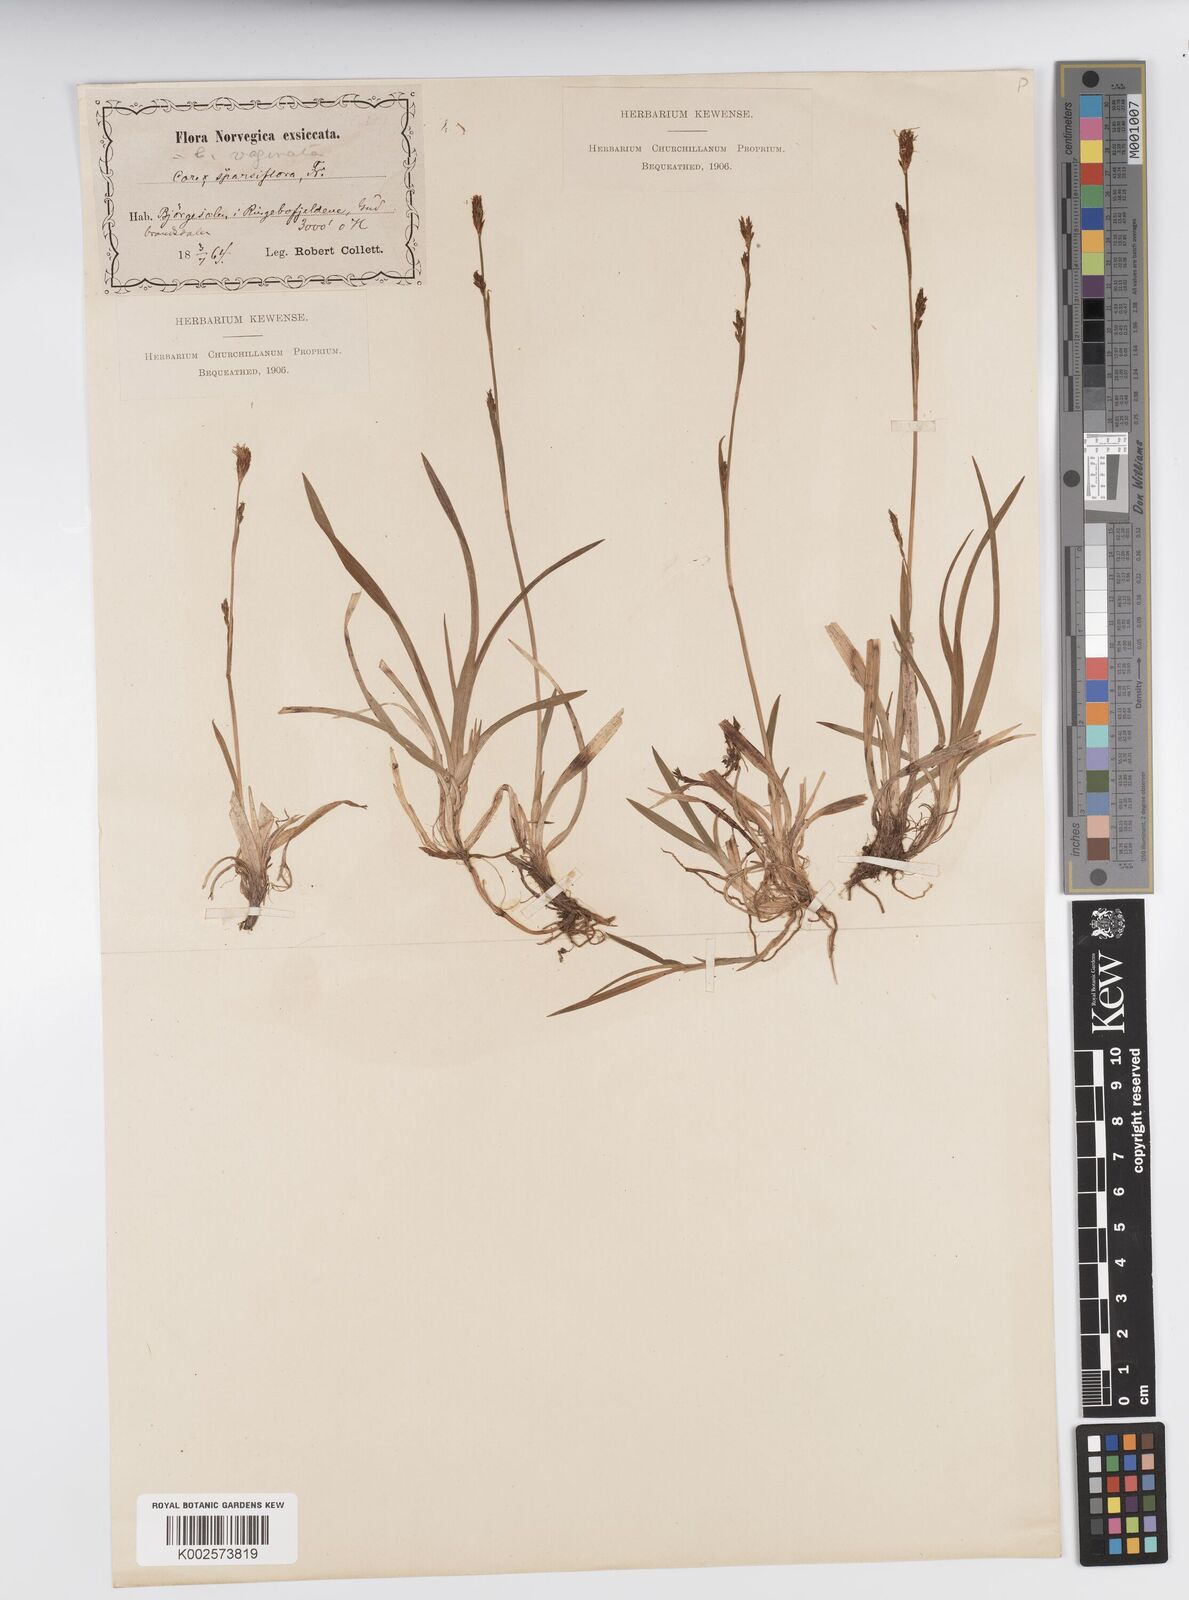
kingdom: Plantae
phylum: Tracheophyta
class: Liliopsida
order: Poales
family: Cyperaceae
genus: Carex
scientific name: Carex vaginata
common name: Sheathed sedge
